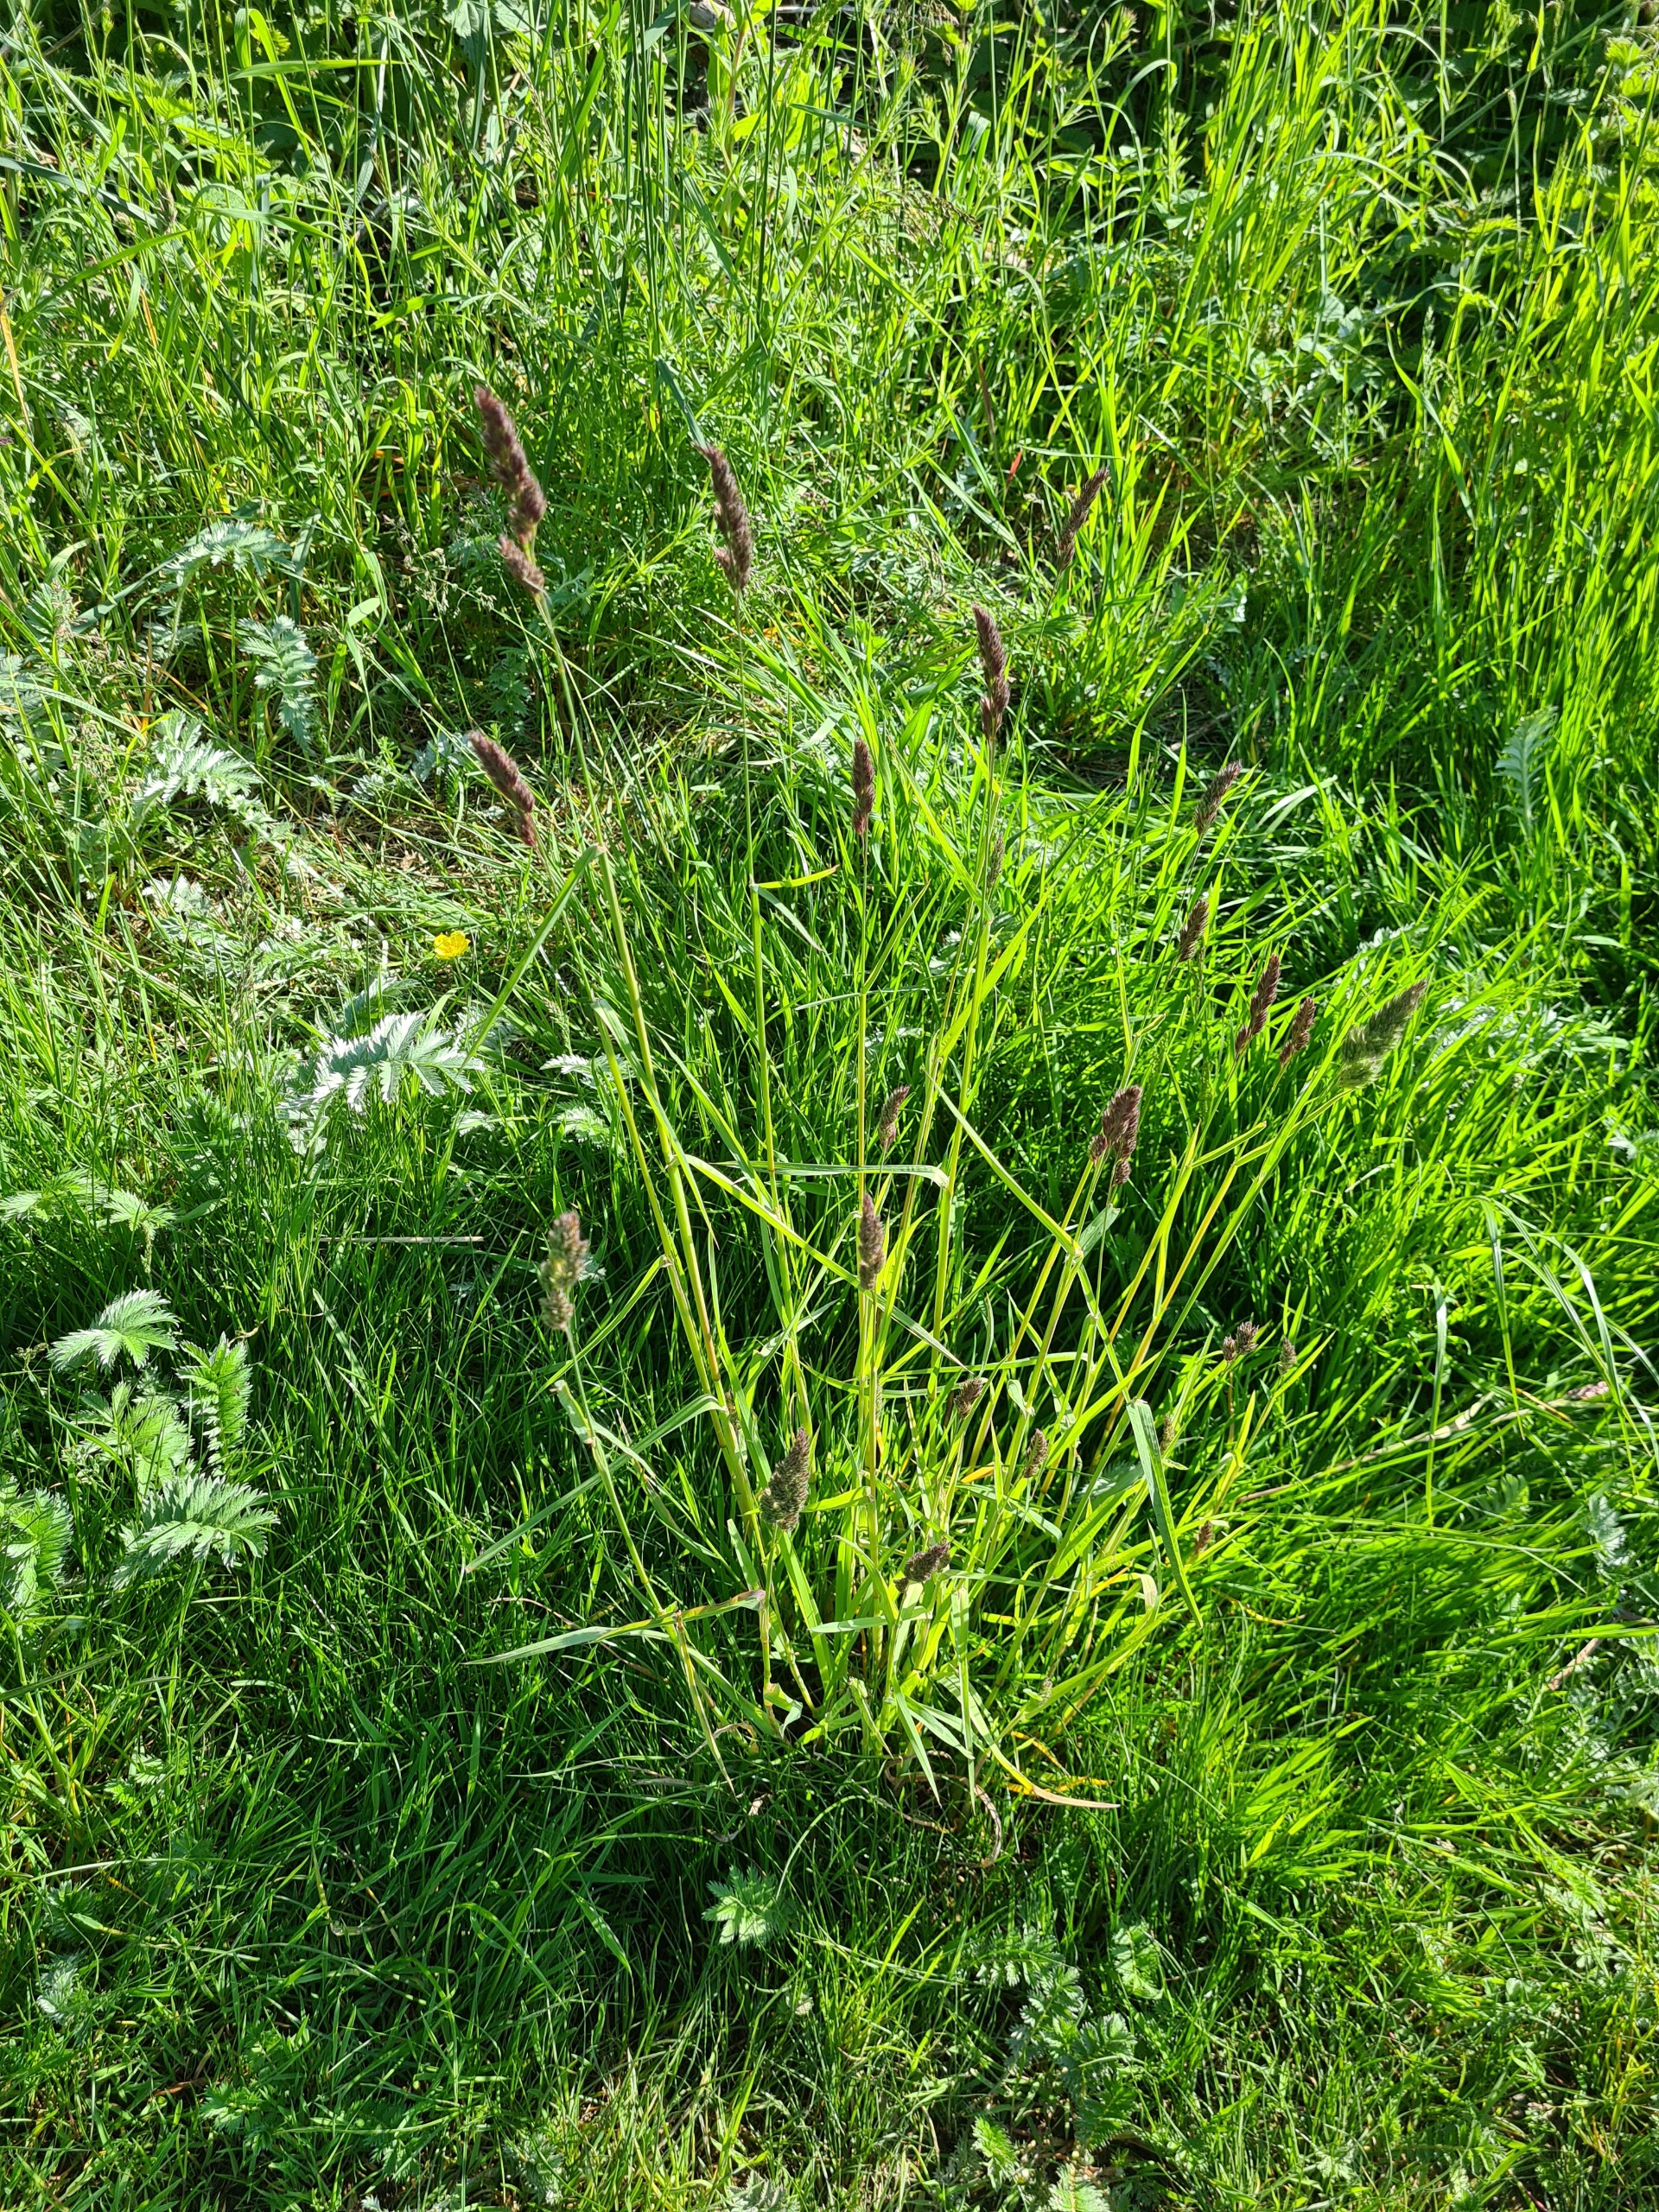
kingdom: Plantae
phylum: Tracheophyta
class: Liliopsida
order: Poales
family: Poaceae
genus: Dactylis
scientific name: Dactylis glomerata
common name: Almindelig hundegræs
